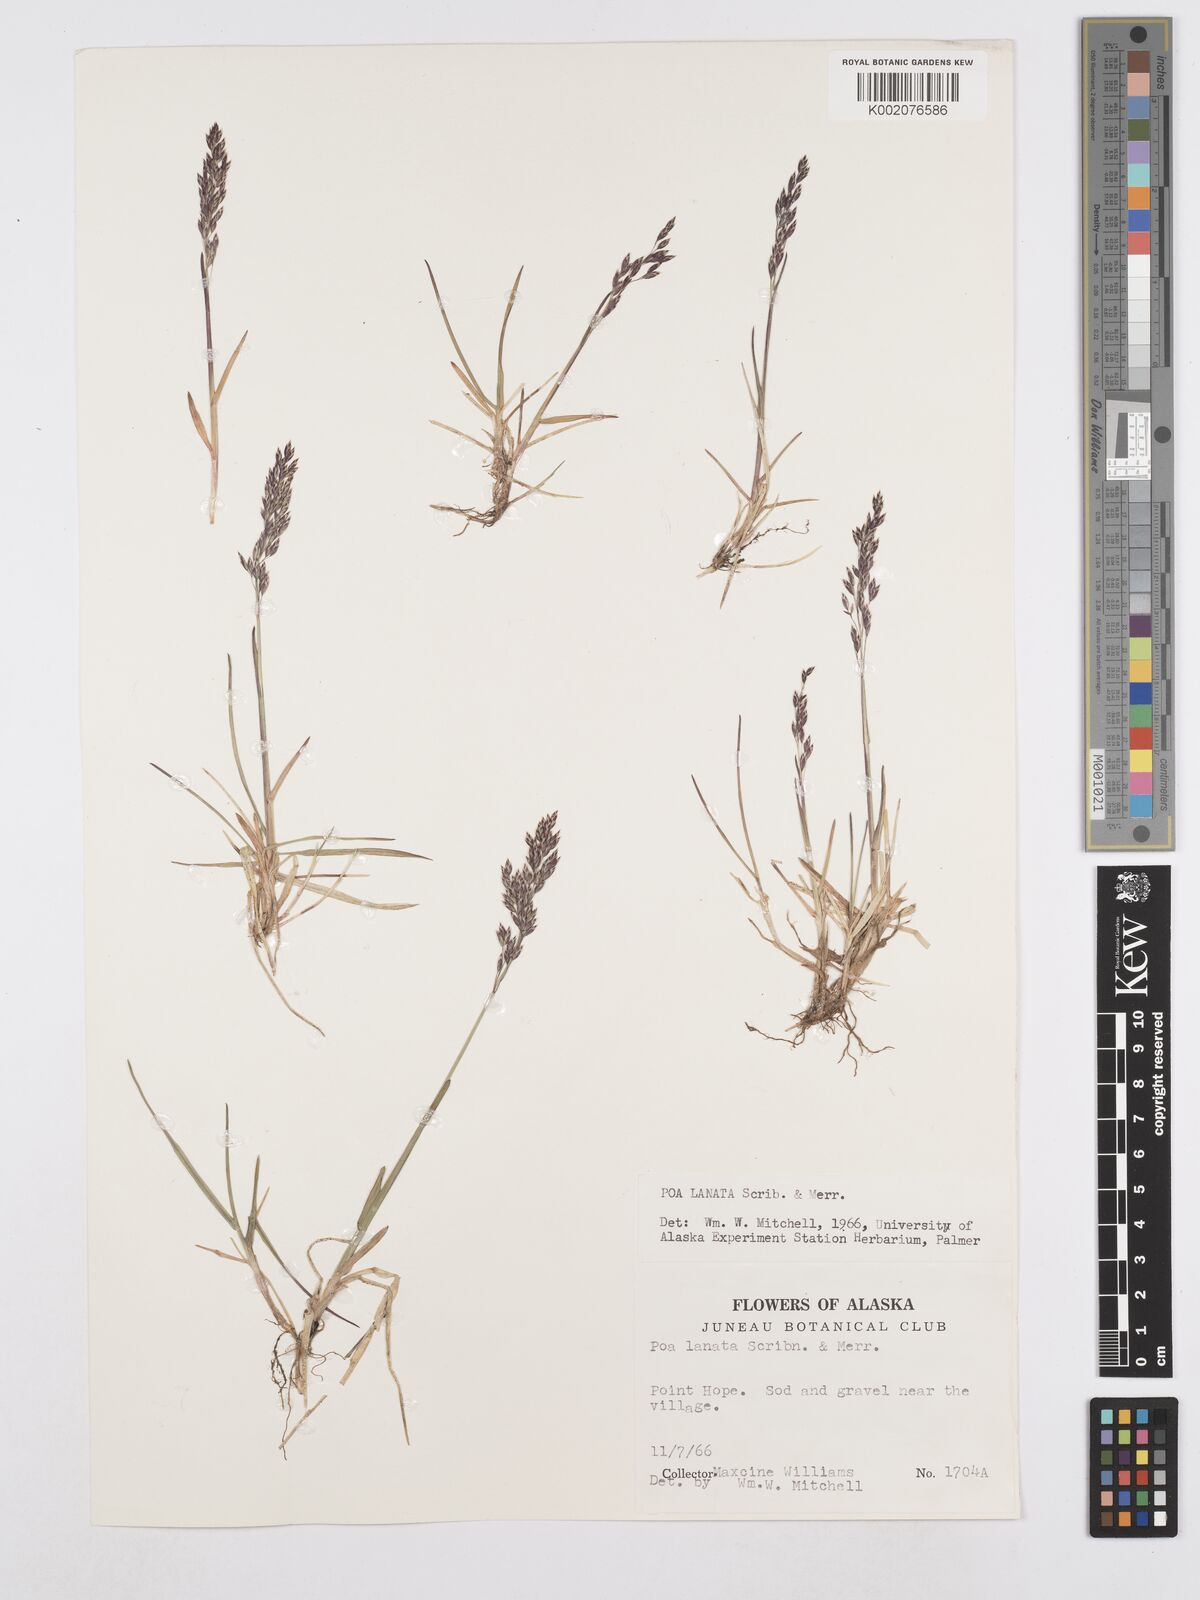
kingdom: Plantae
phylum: Tracheophyta
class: Liliopsida
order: Poales
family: Poaceae
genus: Poa
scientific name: Poa lanata
